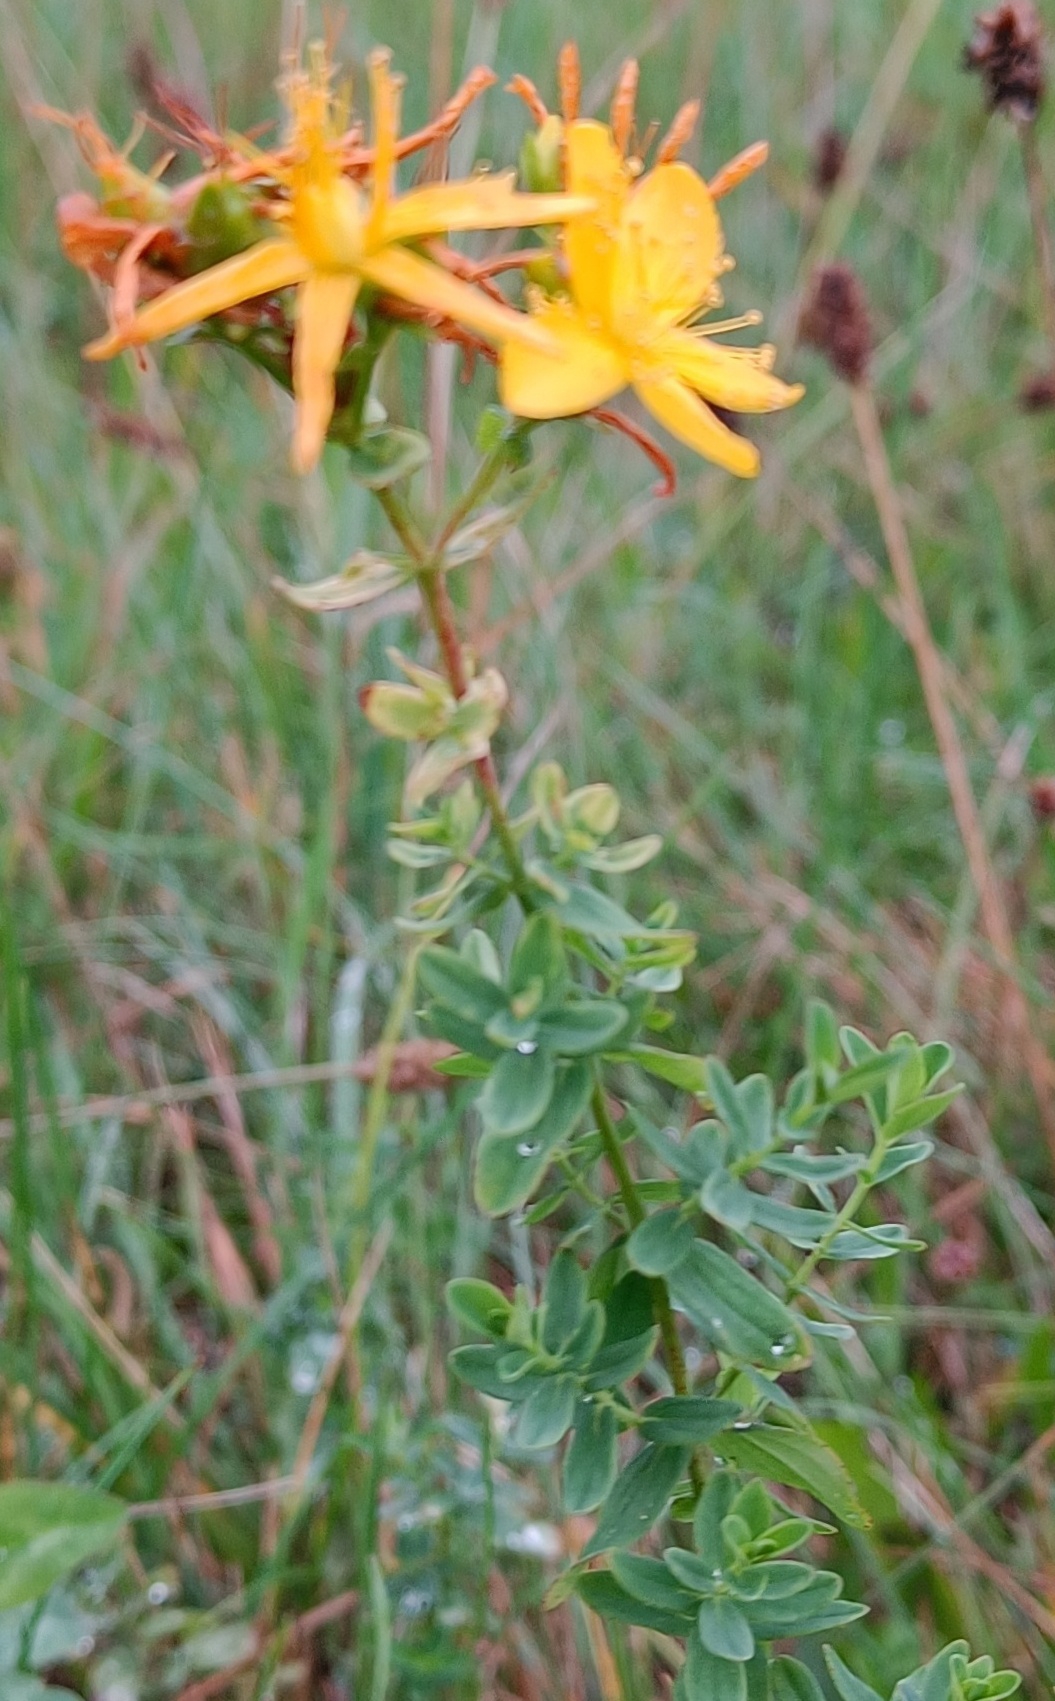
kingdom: Plantae
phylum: Tracheophyta
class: Magnoliopsida
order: Malpighiales
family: Hypericaceae
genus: Hypericum
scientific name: Hypericum perforatum
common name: Prikbladet perikon
